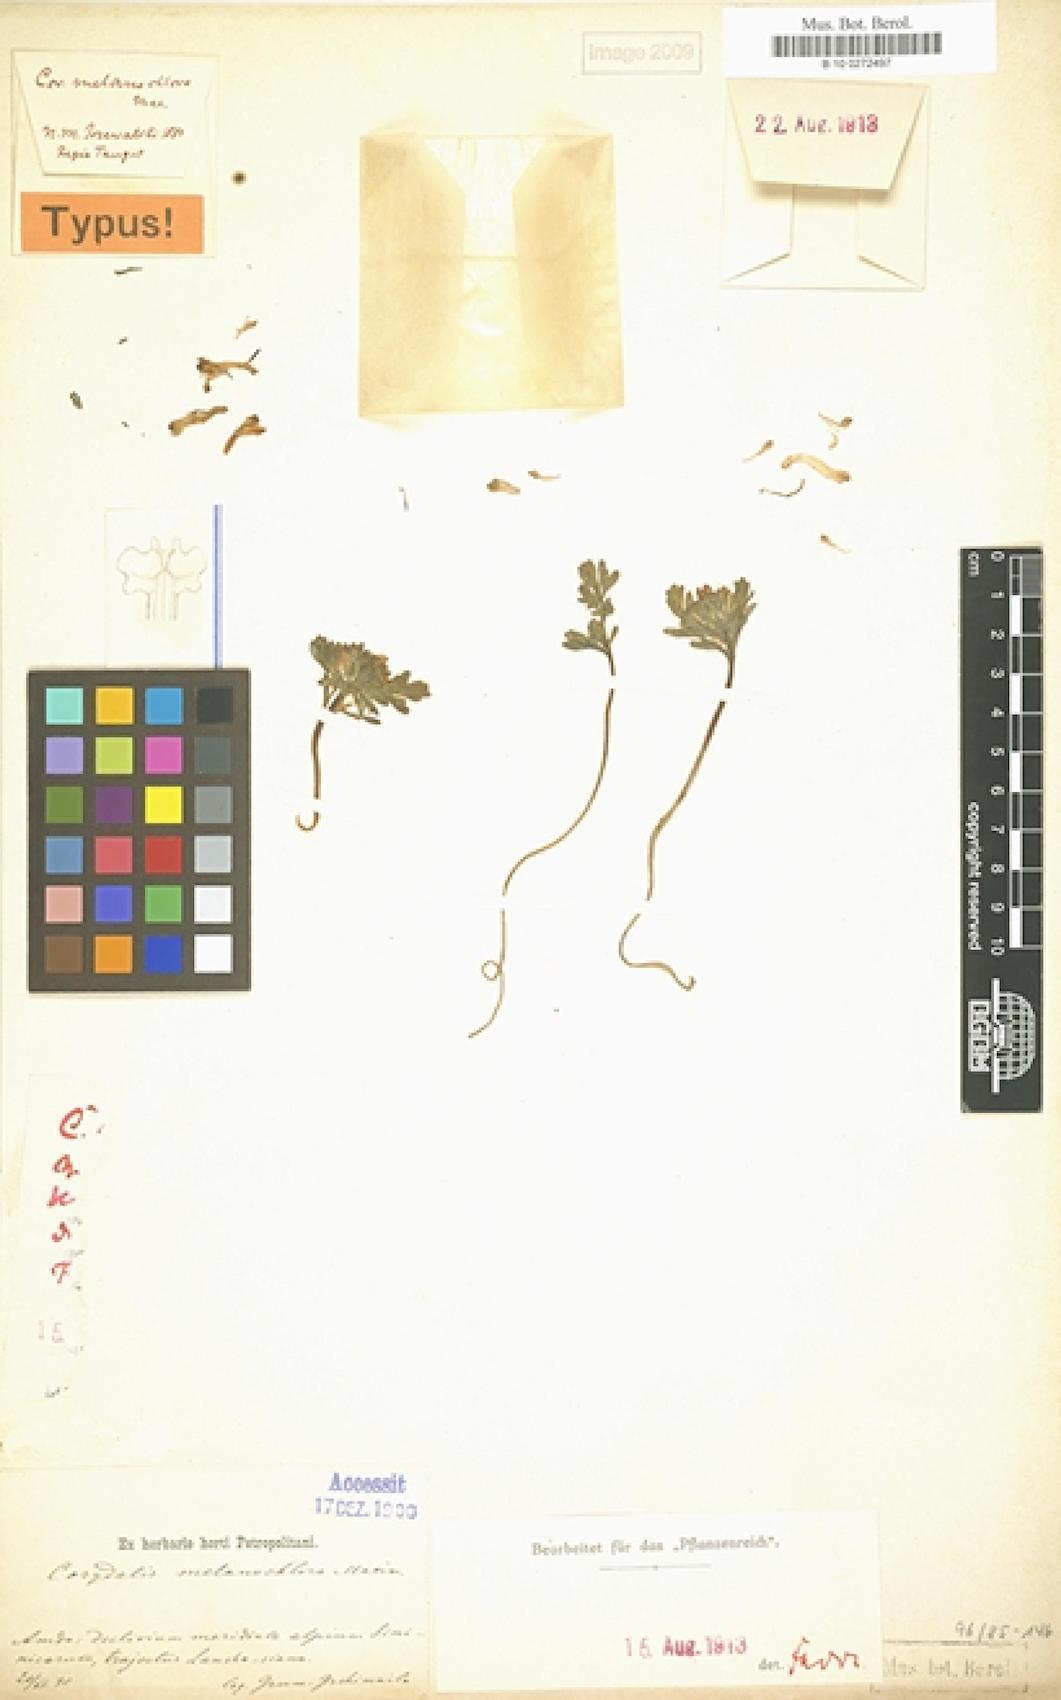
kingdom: Plantae
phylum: Tracheophyta
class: Magnoliopsida
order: Ranunculales
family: Papaveraceae
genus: Corydalis
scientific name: Corydalis melanochlora
